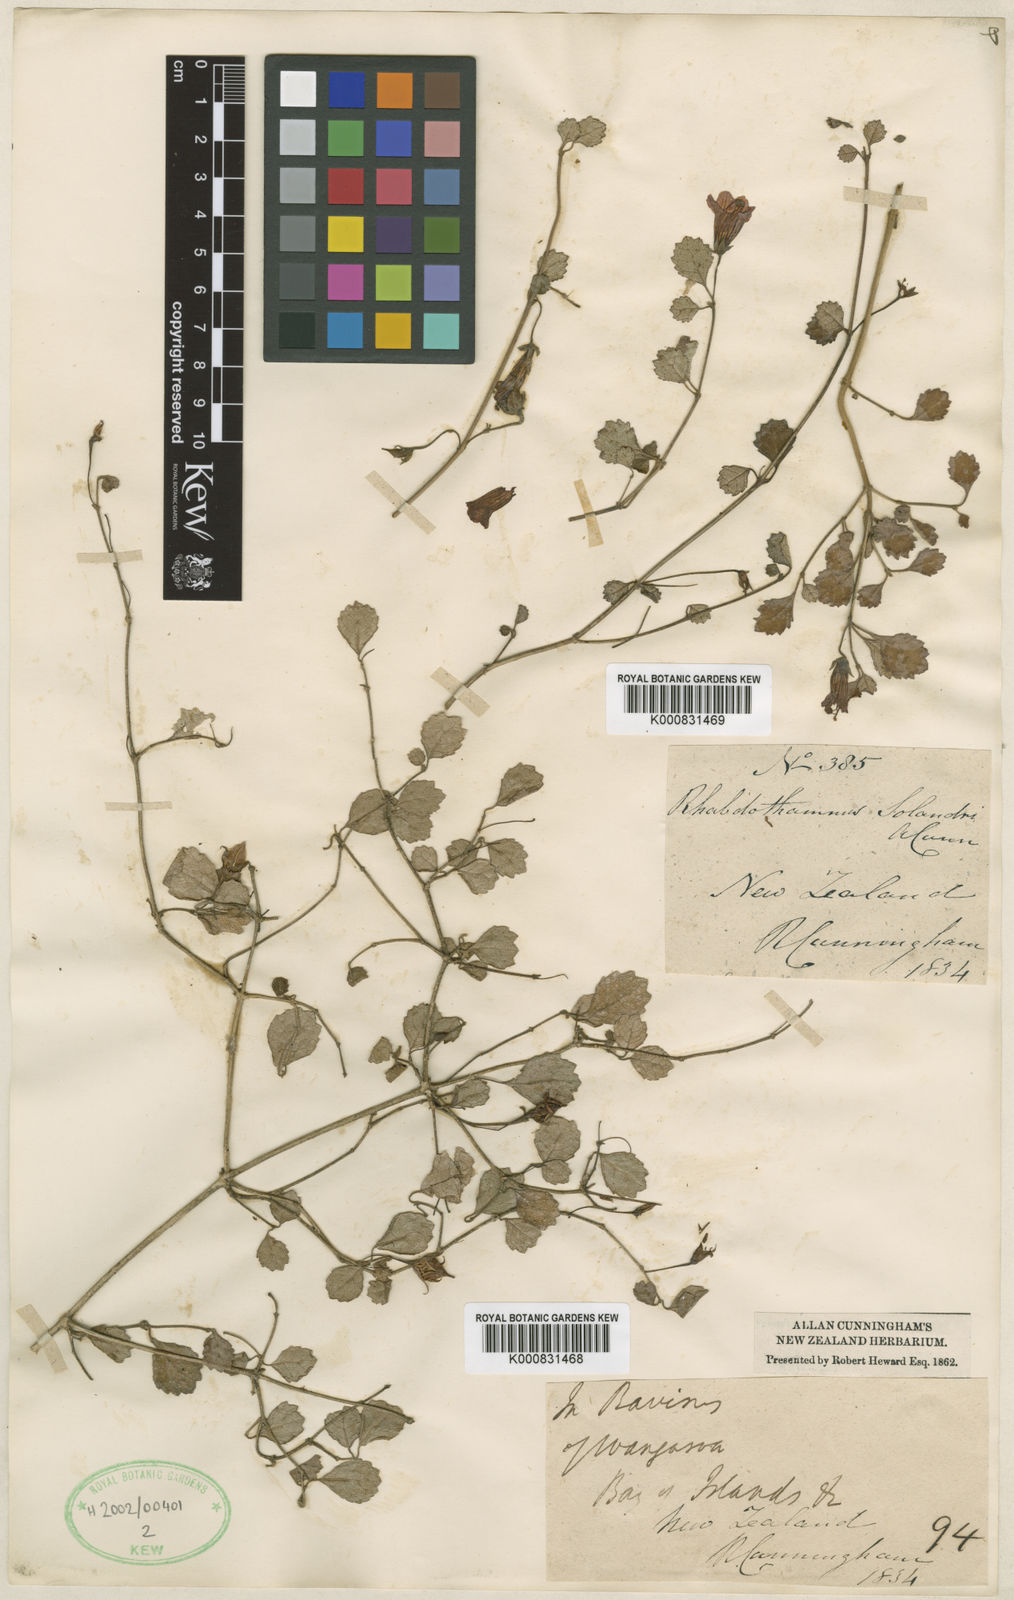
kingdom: Plantae
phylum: Tracheophyta
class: Magnoliopsida
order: Lamiales
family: Gesneriaceae
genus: Rhabdothamnus
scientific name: Rhabdothamnus solandri
